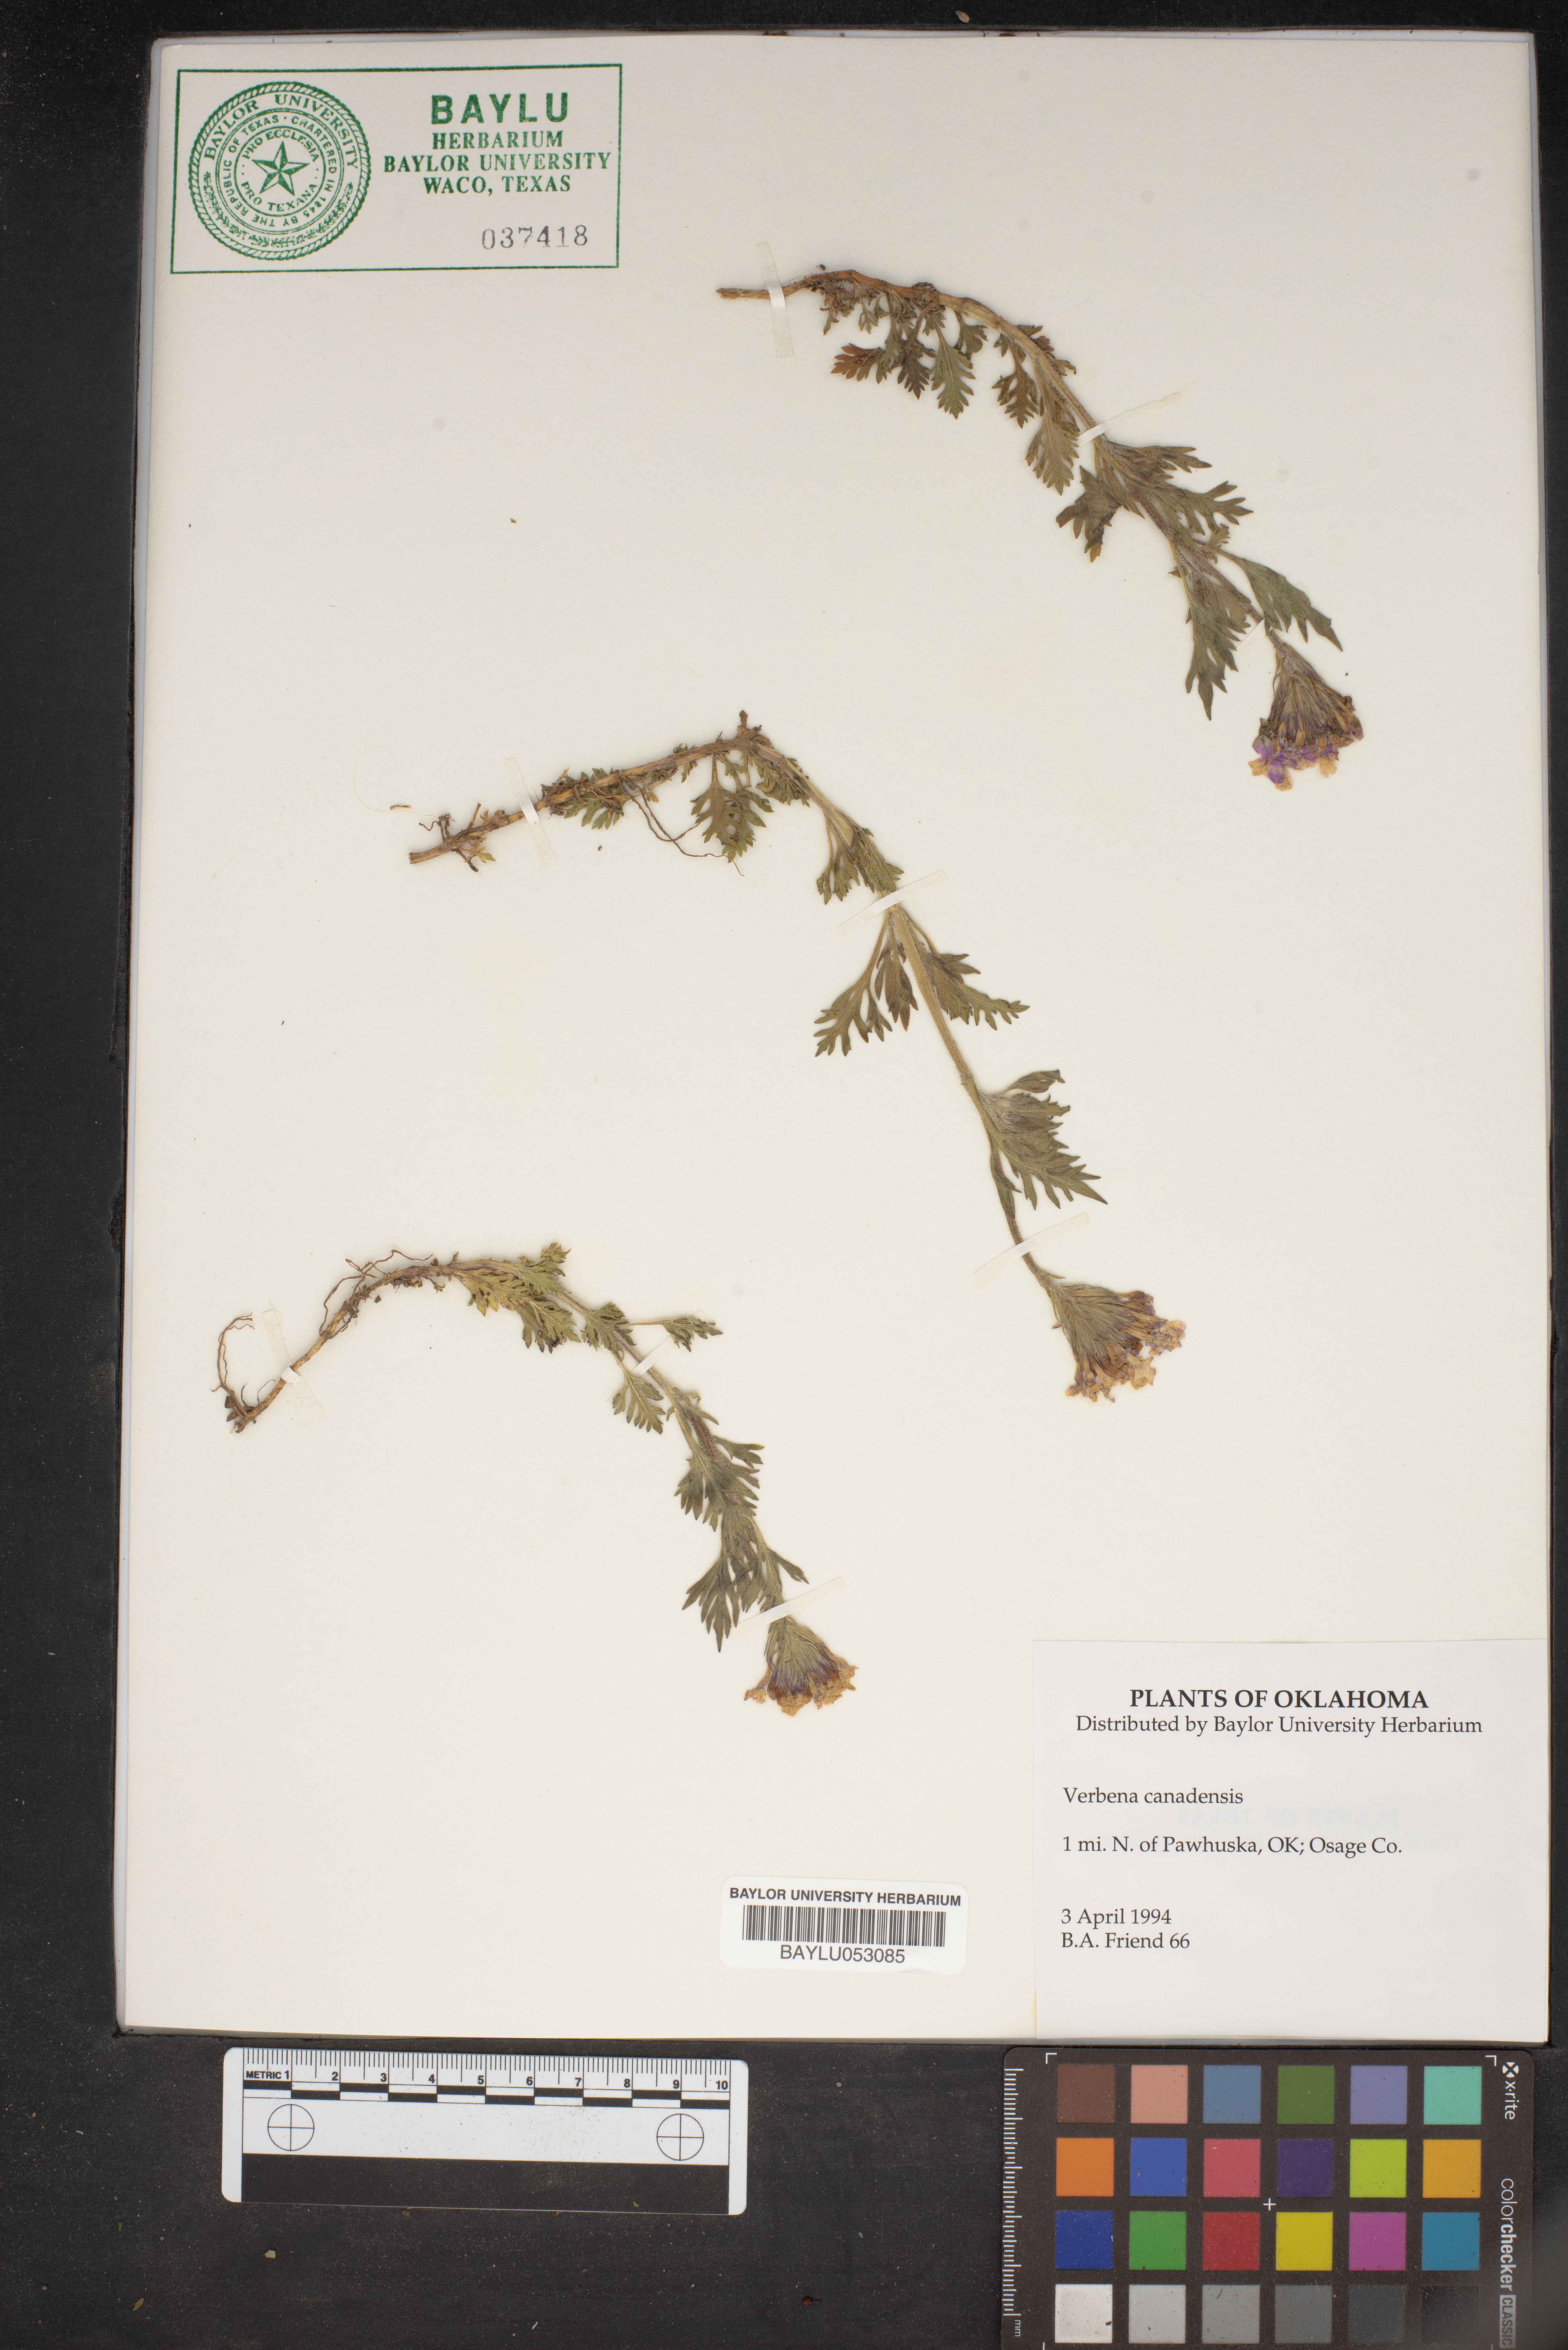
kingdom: Plantae
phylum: Tracheophyta
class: Magnoliopsida
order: Lamiales
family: Verbenaceae
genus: Verbena
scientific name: Verbena canadensis
